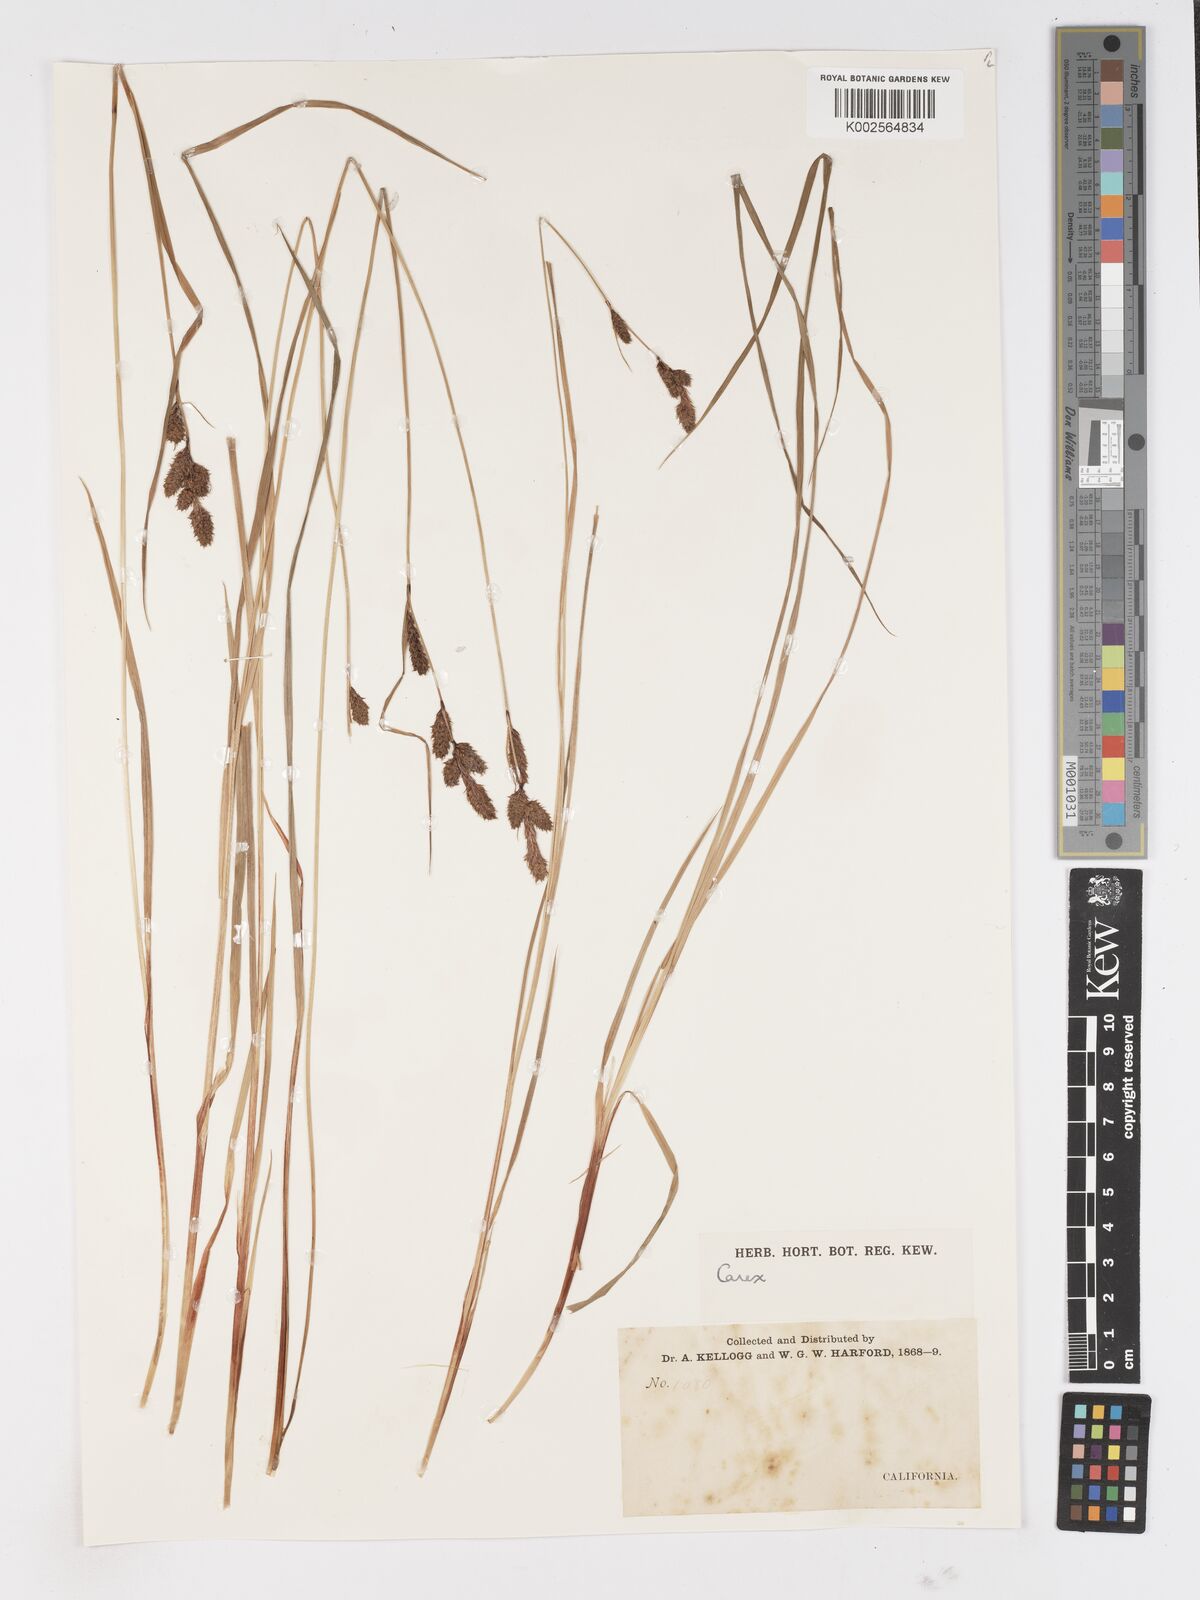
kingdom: Plantae
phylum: Tracheophyta
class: Liliopsida
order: Poales
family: Cyperaceae
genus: Carex
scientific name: Carex
